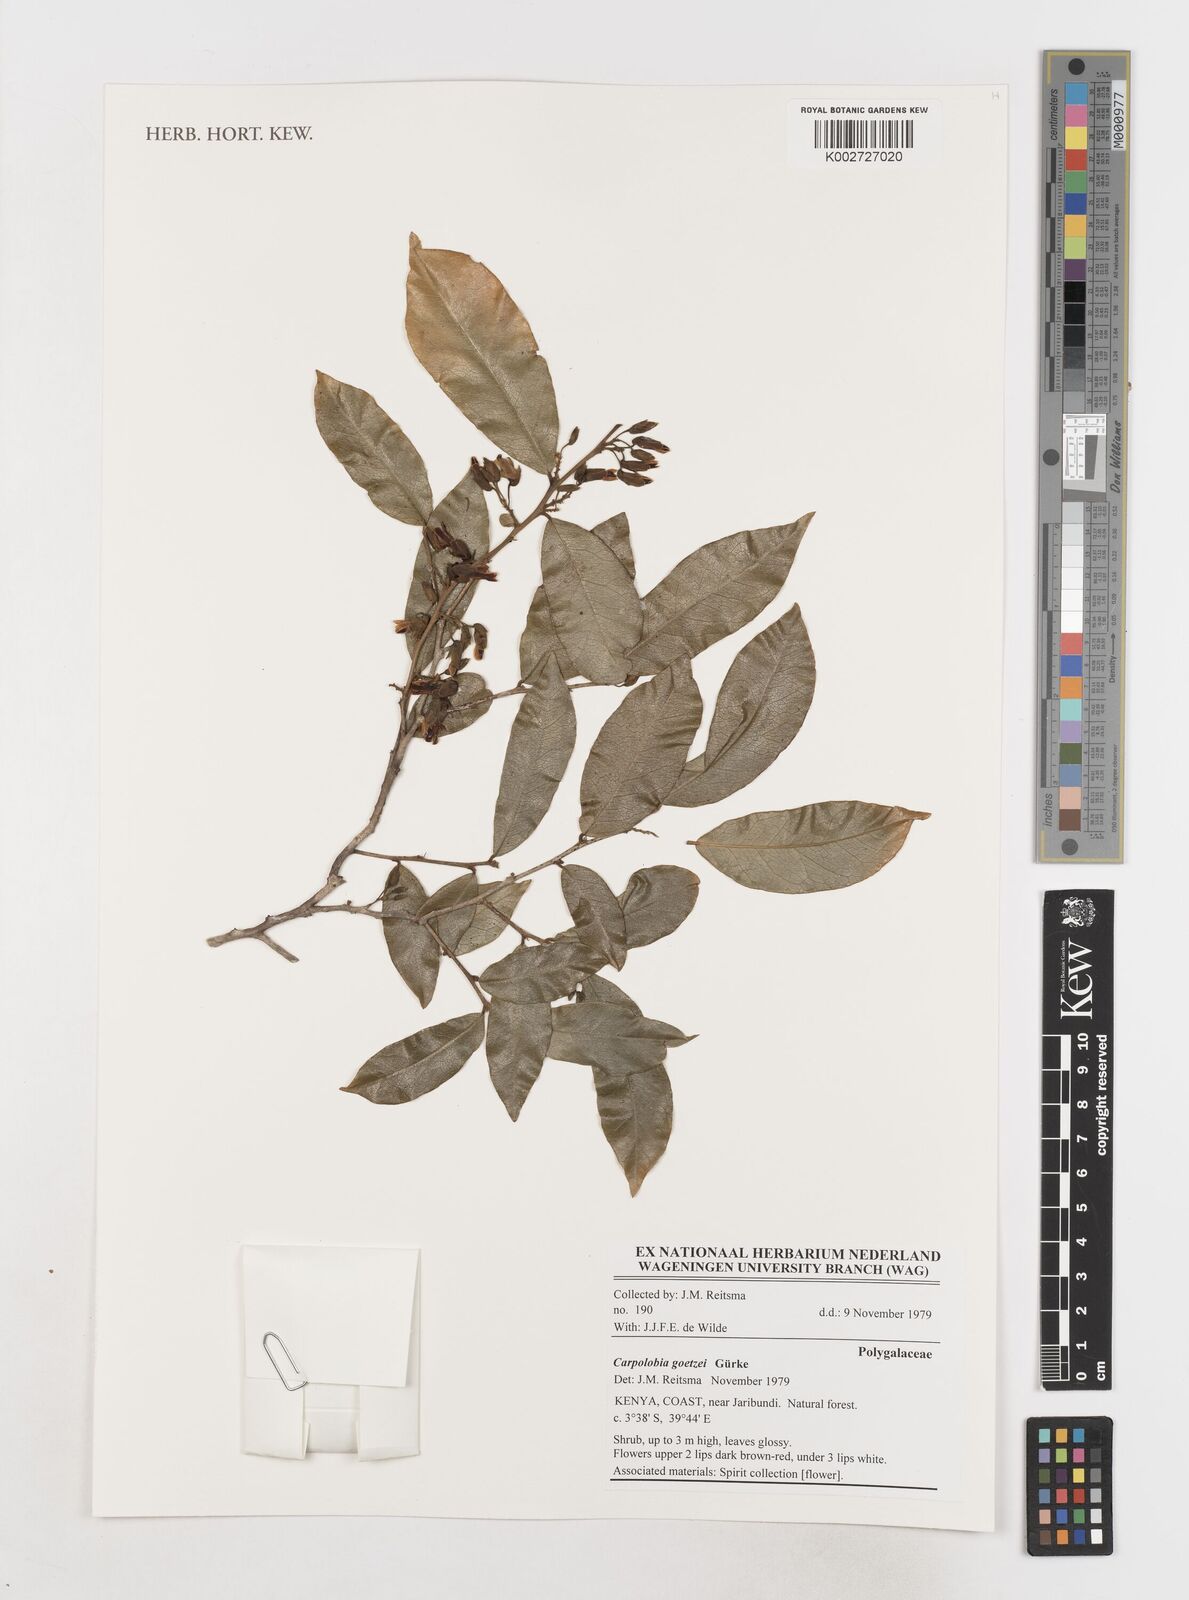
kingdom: Plantae
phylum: Tracheophyta
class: Magnoliopsida
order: Fabales
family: Polygalaceae
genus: Carpolobia
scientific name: Carpolobia goetzei
